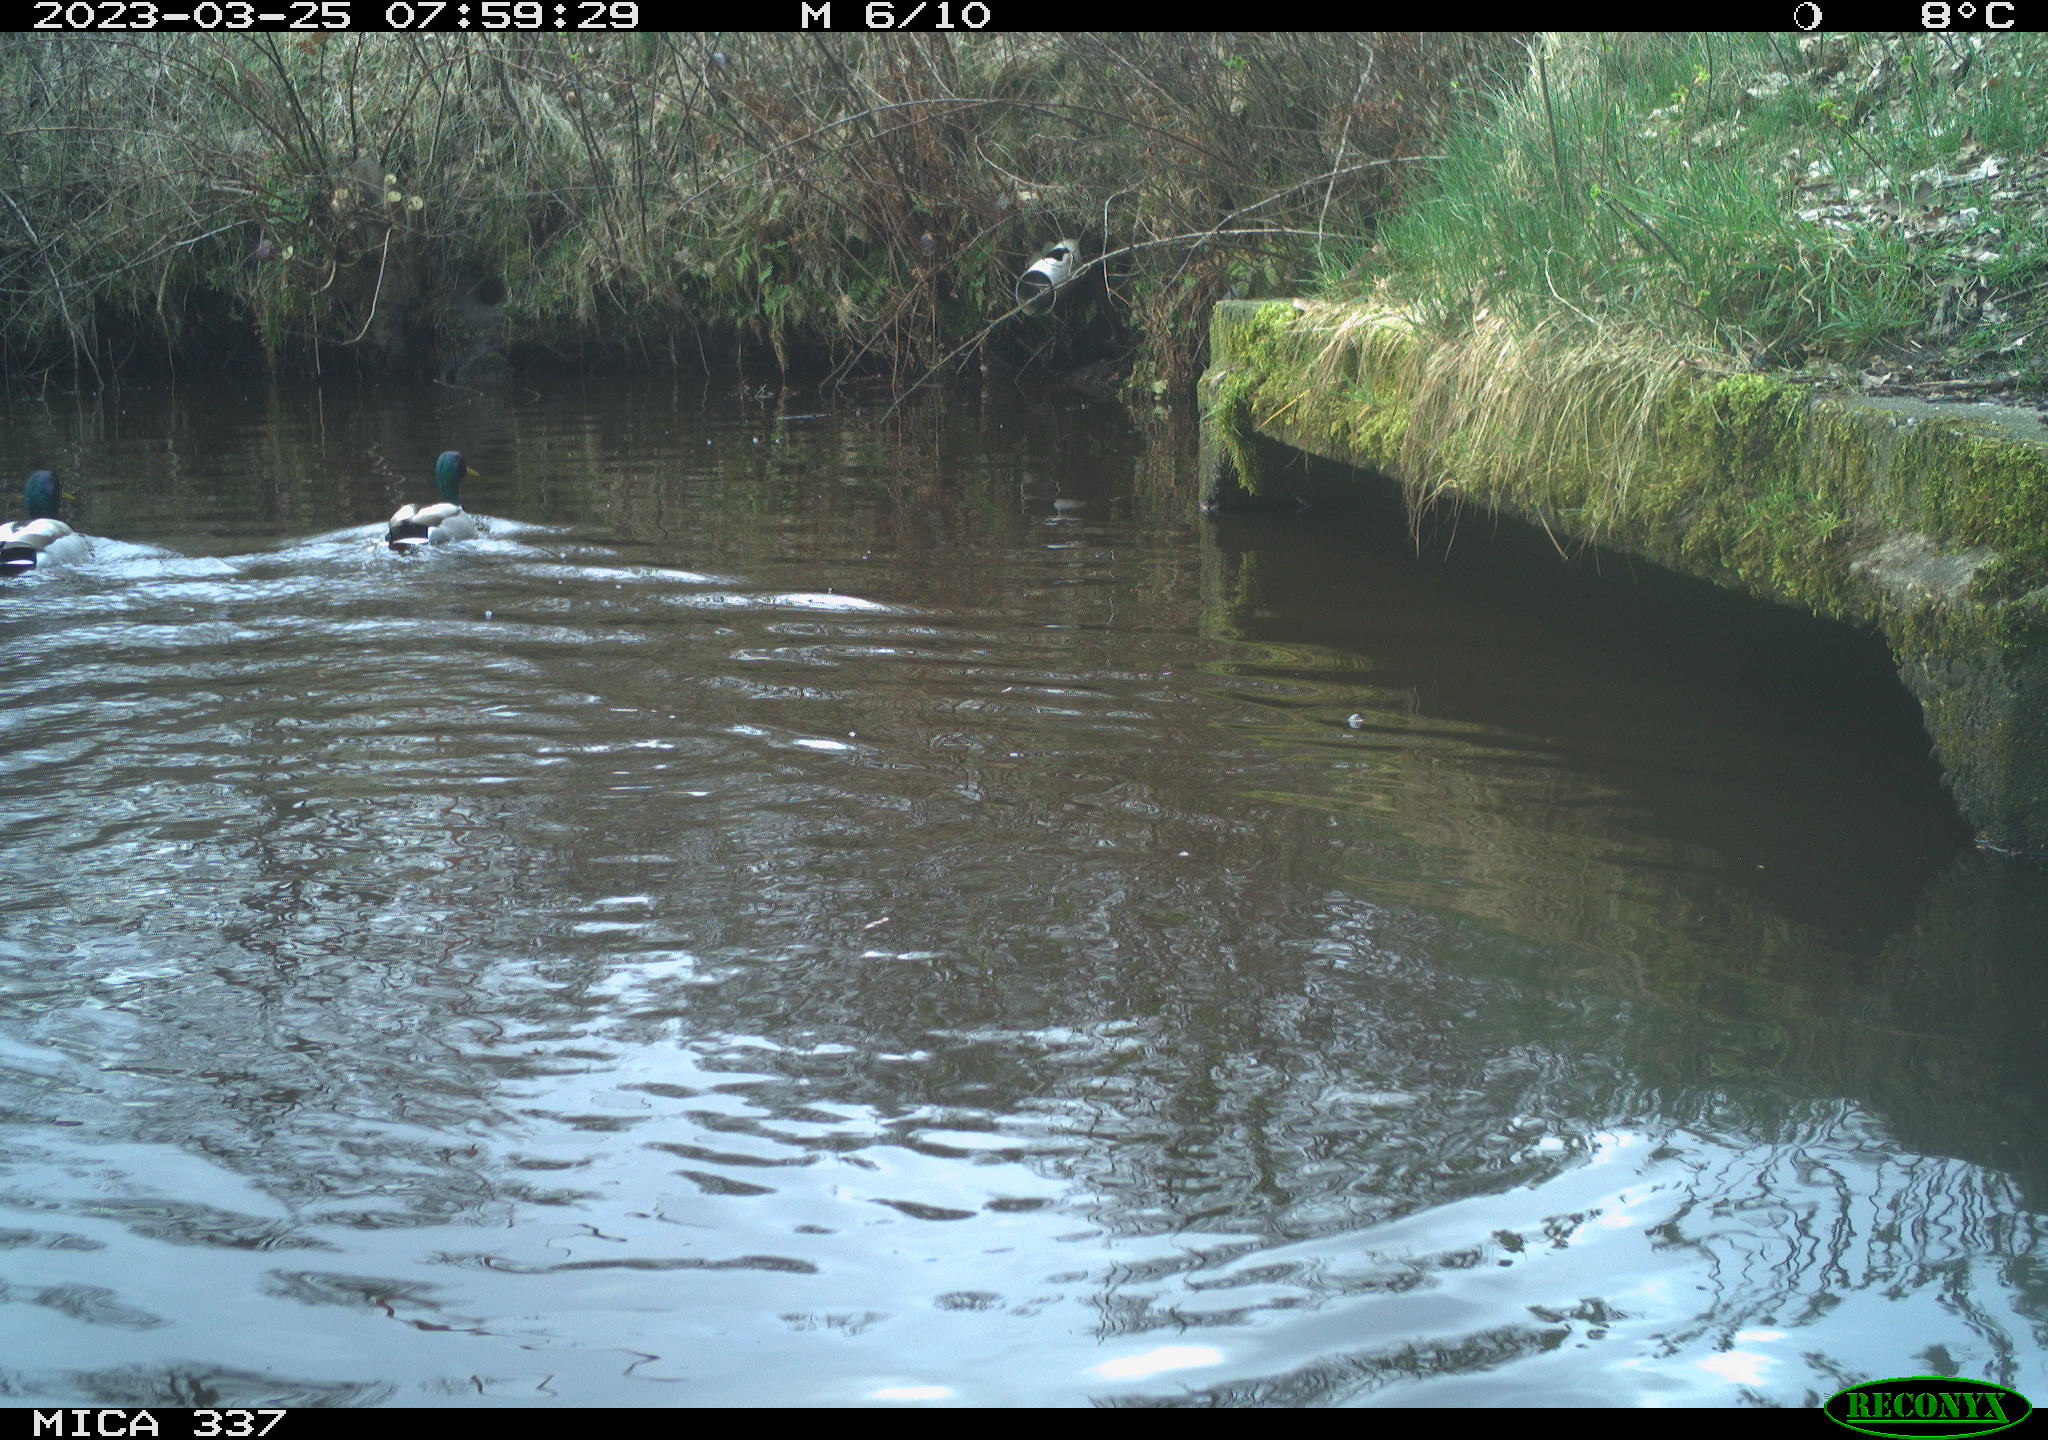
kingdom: Animalia
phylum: Chordata
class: Aves
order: Anseriformes
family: Anatidae
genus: Anas
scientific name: Anas
